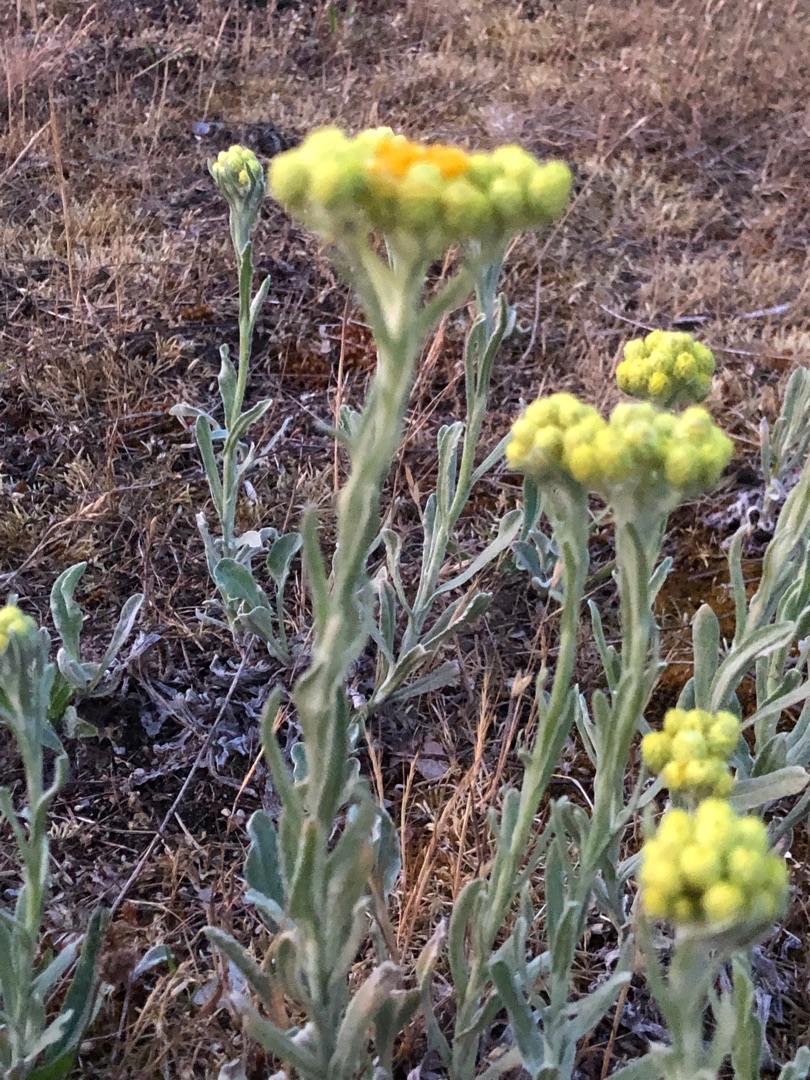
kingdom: Plantae
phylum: Tracheophyta
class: Magnoliopsida
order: Asterales
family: Asteraceae
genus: Helichrysum
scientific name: Helichrysum arenarium
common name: Gul evighedsblomst
